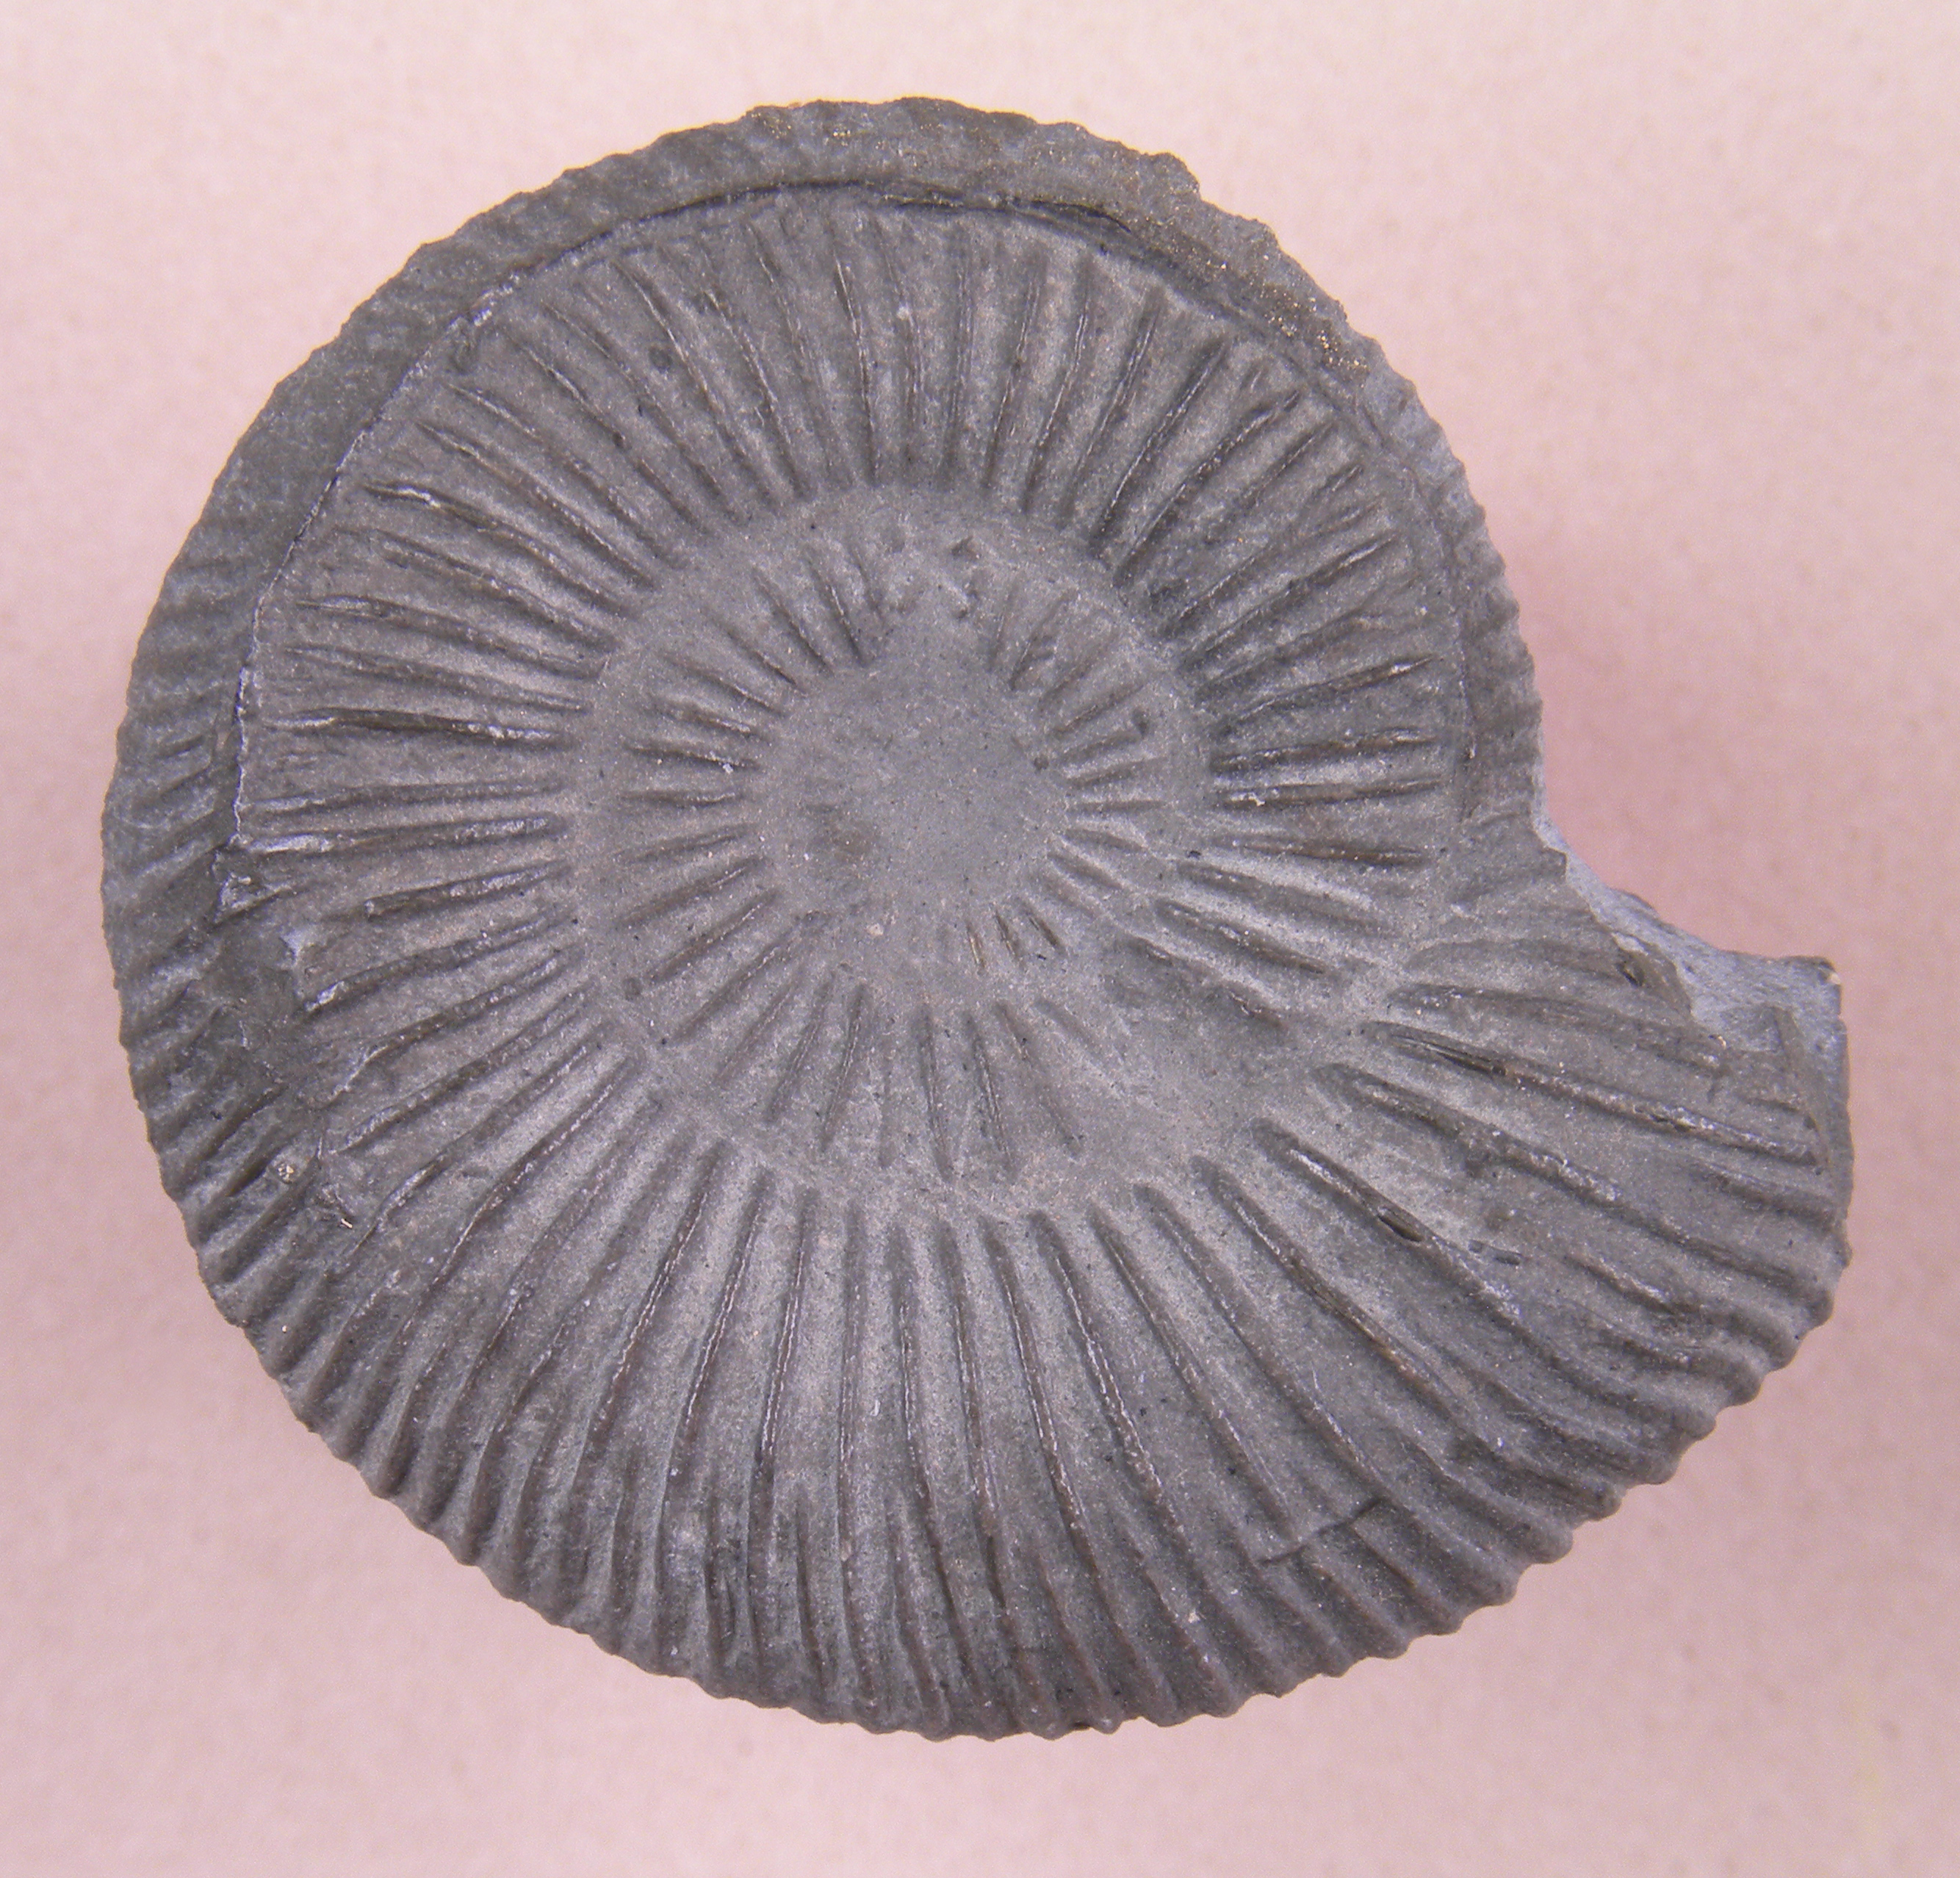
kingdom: Animalia
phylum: Mollusca
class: Cephalopoda
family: Dactylioceratidae
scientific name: Dactylioceratidae
